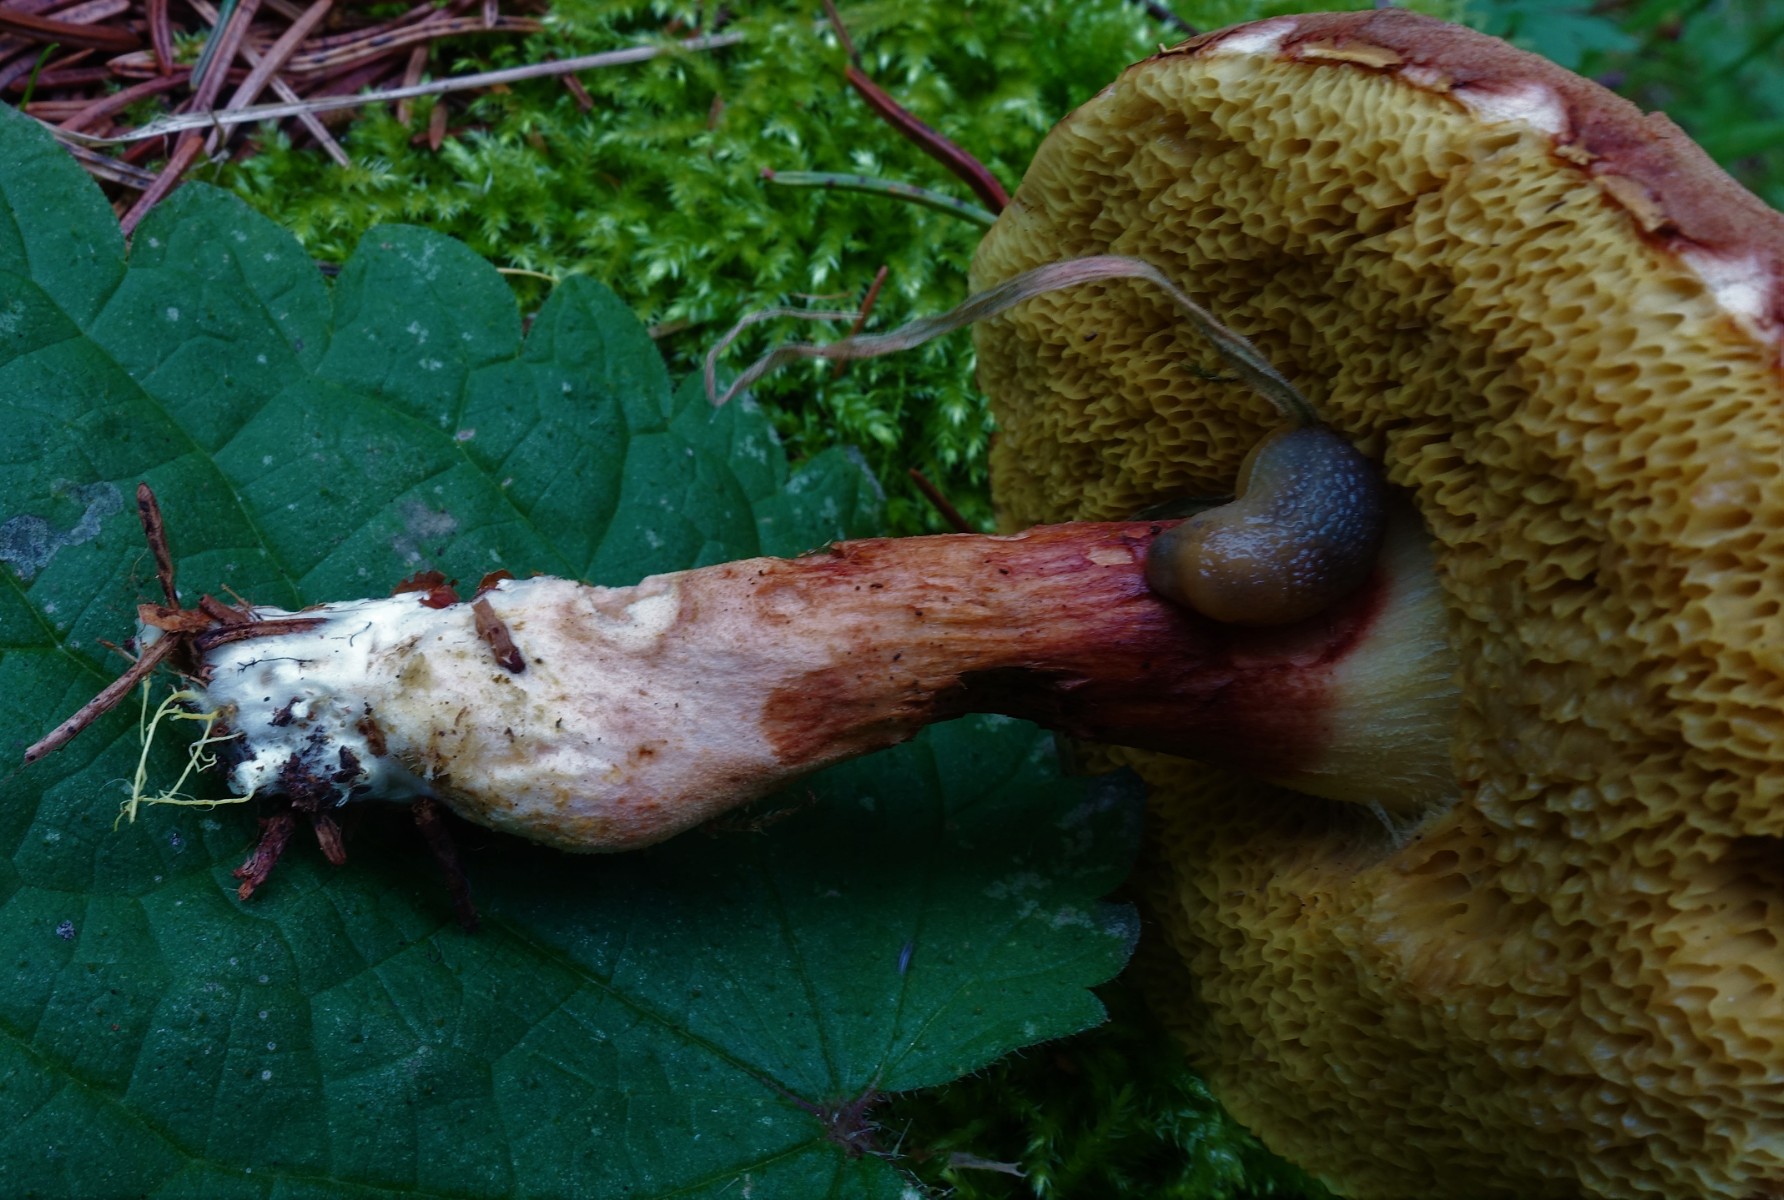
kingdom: Fungi
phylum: Basidiomycota
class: Agaricomycetes
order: Boletales
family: Boletaceae
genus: Xerocomus
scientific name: Xerocomus ferrugineus
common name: vaskeskinds-rørhat
